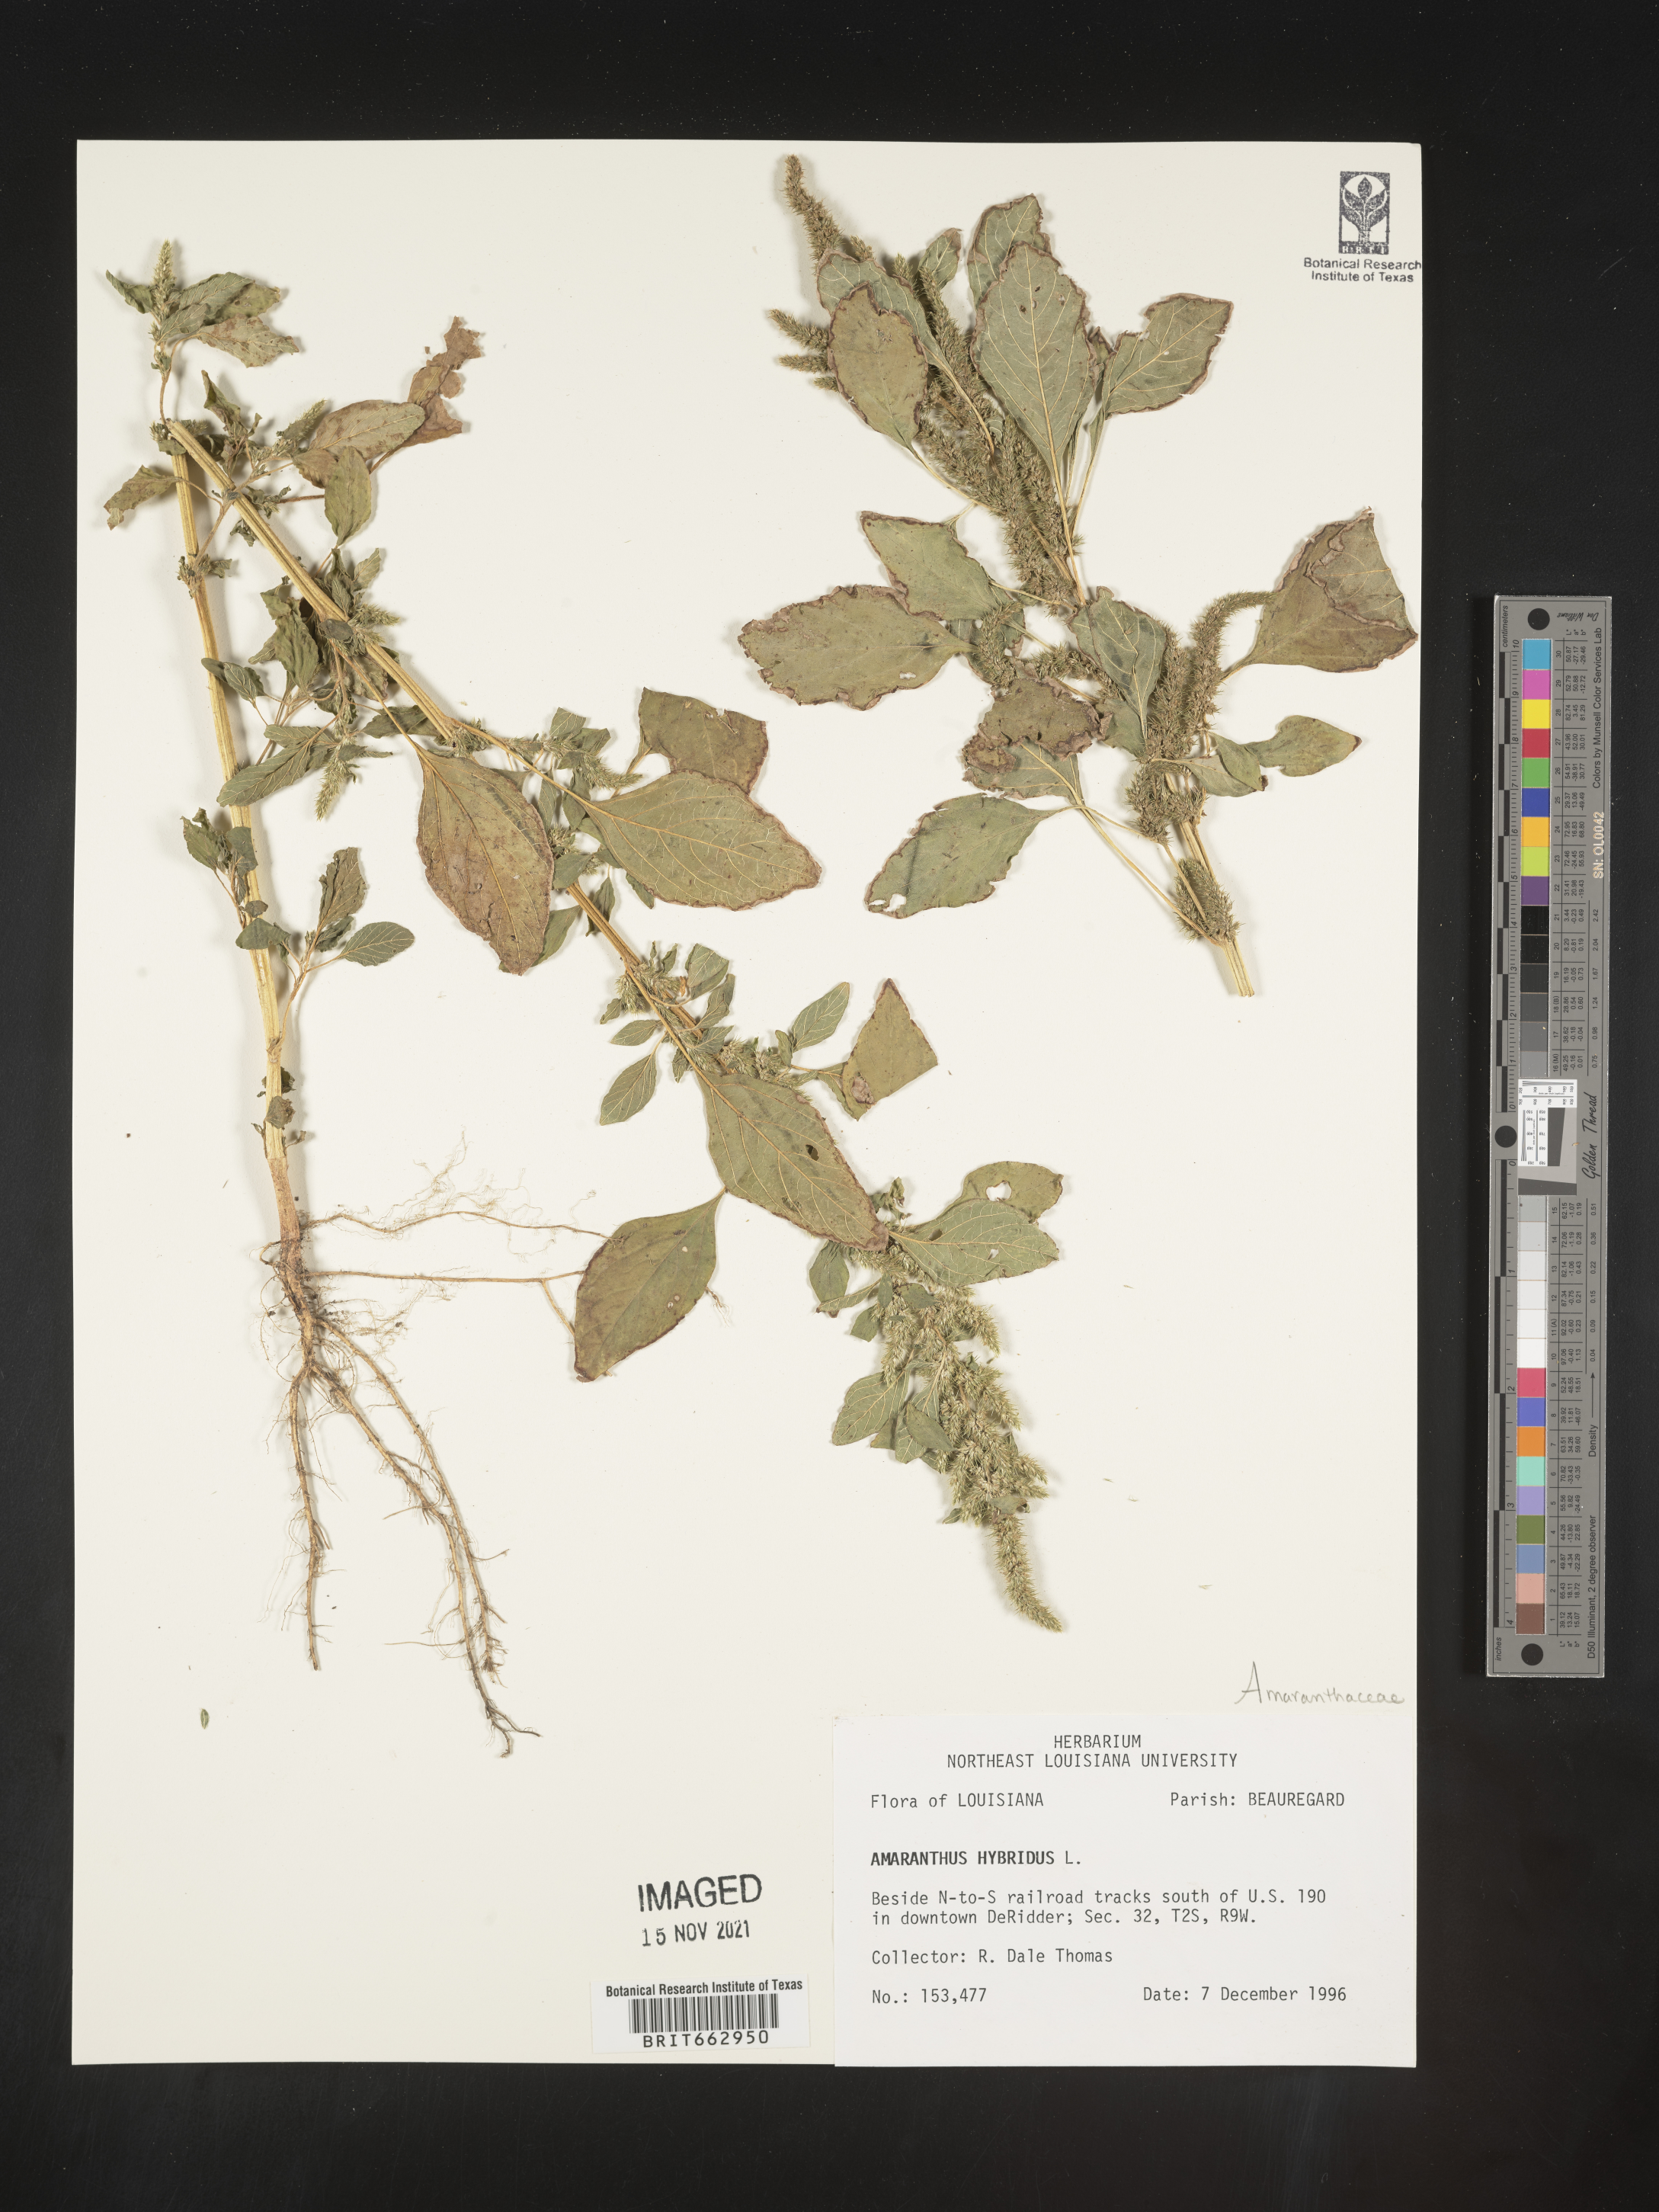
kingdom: Plantae
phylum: Tracheophyta
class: Magnoliopsida
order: Caryophyllales
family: Amaranthaceae
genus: Amaranthus
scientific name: Amaranthus hybridus
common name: Green amaranth
